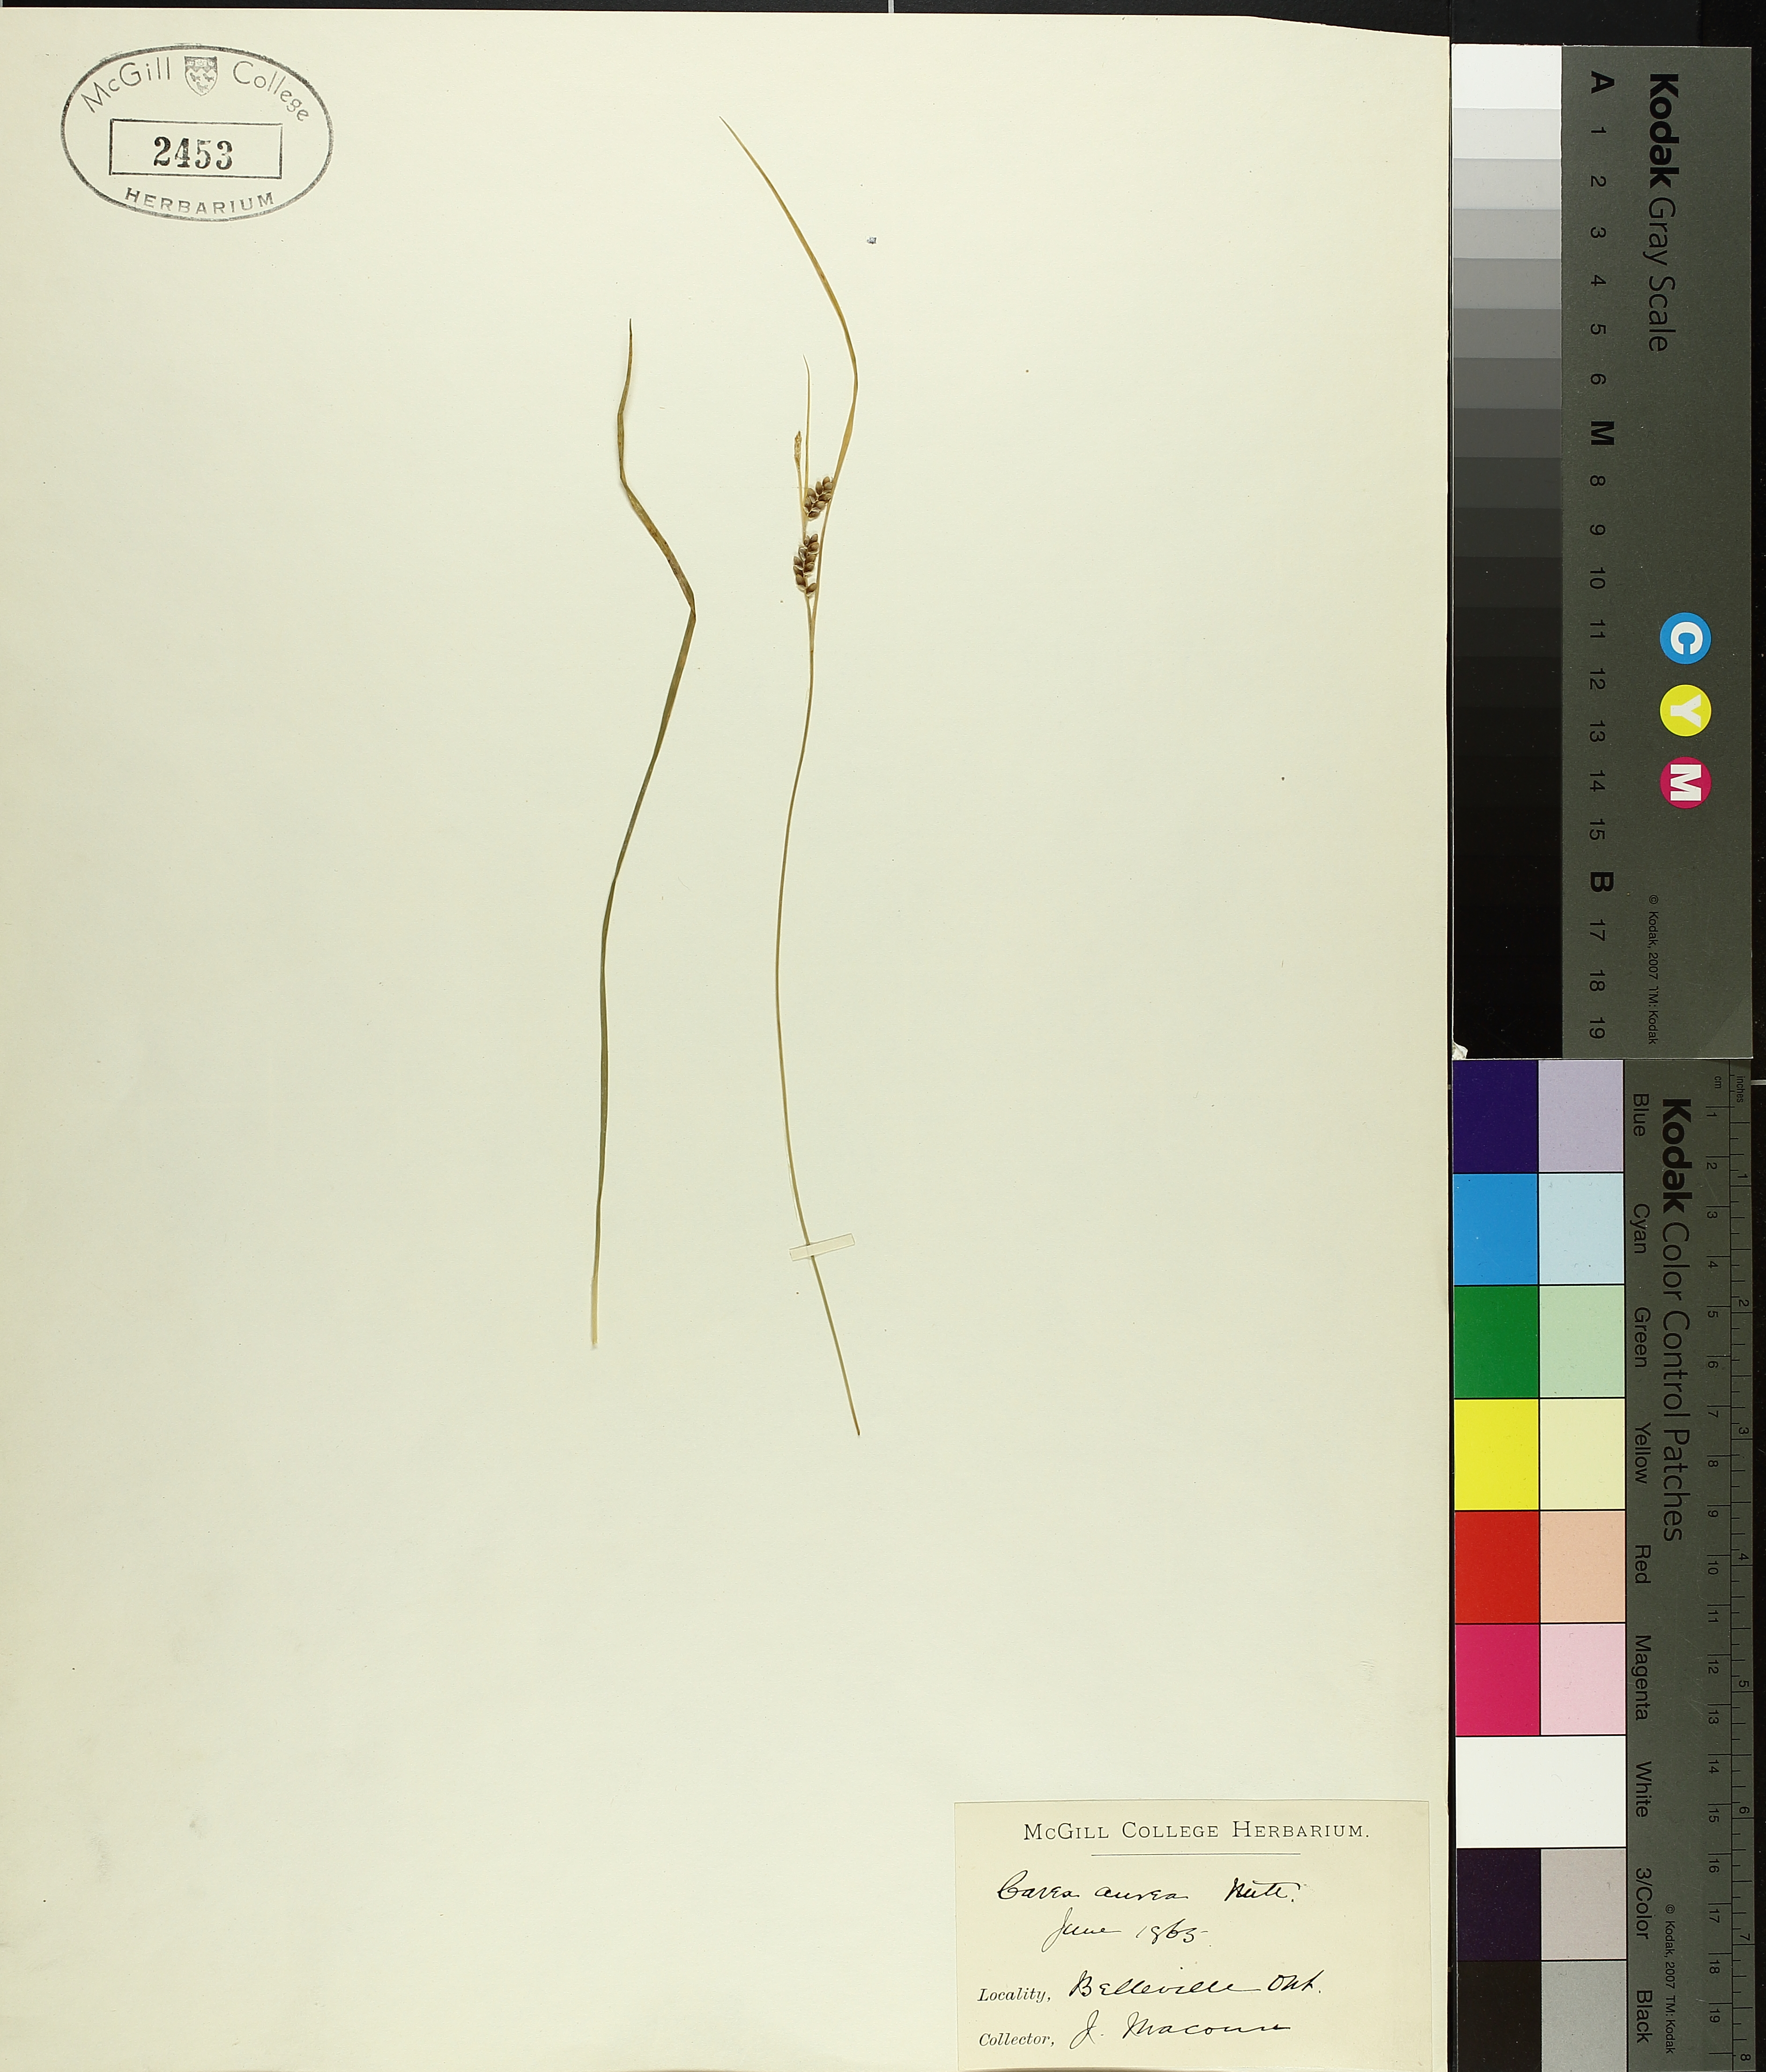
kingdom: Plantae
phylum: Tracheophyta
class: Liliopsida
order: Poales
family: Cyperaceae
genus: Carex
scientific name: Carex aurea
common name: Golden sedge
